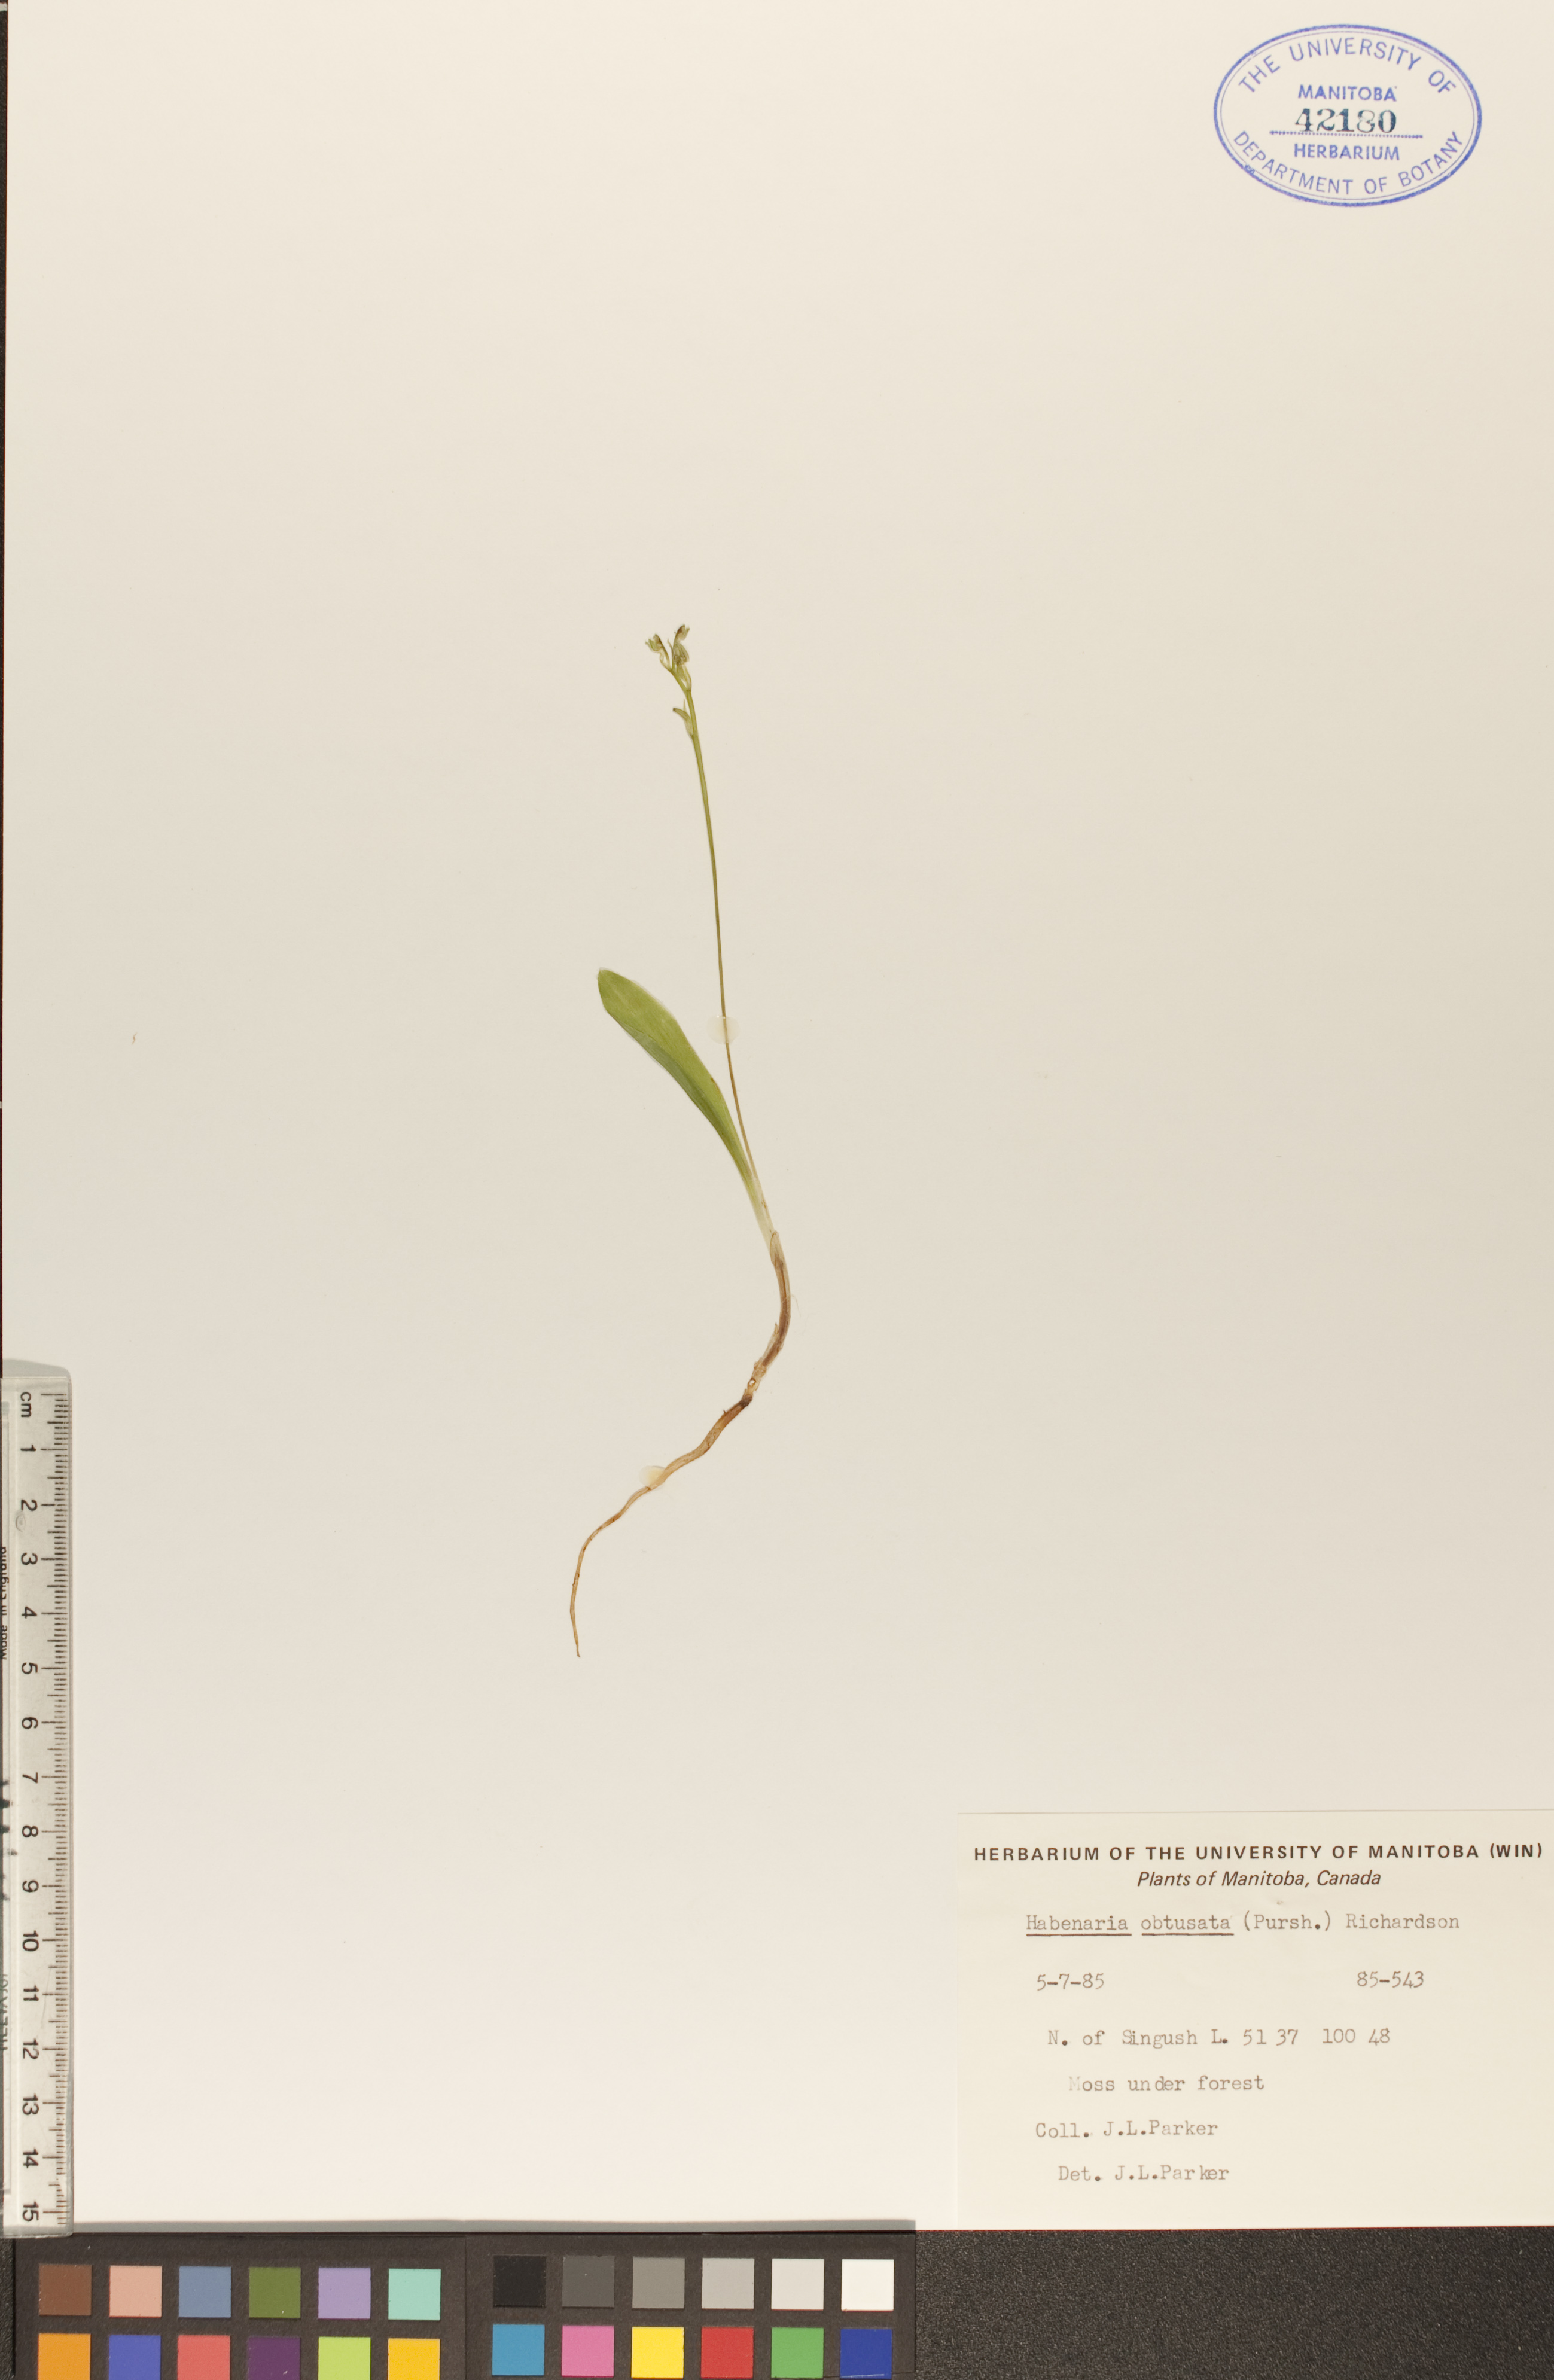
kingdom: Plantae
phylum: Tracheophyta
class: Liliopsida
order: Asparagales
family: Orchidaceae
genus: Platanthera
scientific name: Platanthera obtusata
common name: Blunt bog orchid
